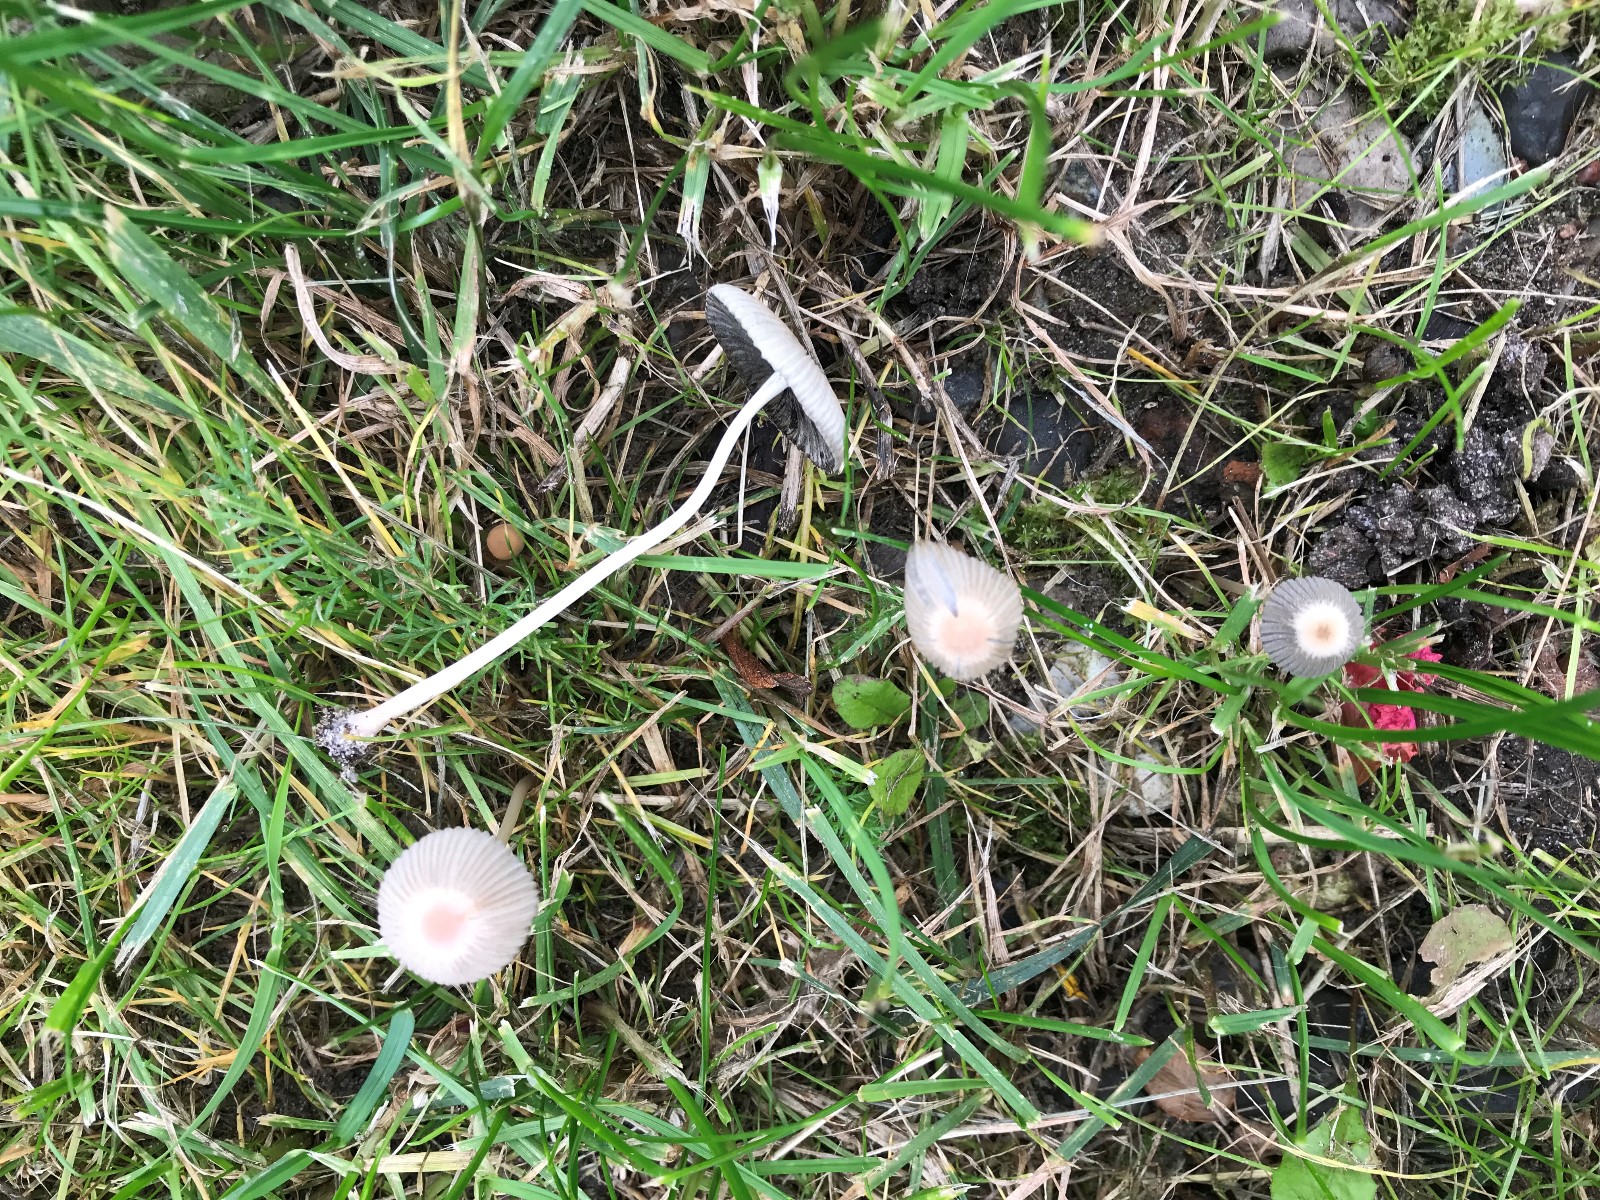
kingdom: Fungi
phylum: Basidiomycota
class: Agaricomycetes
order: Agaricales
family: Psathyrellaceae
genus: Parasola
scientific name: Parasola
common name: hjulhat
